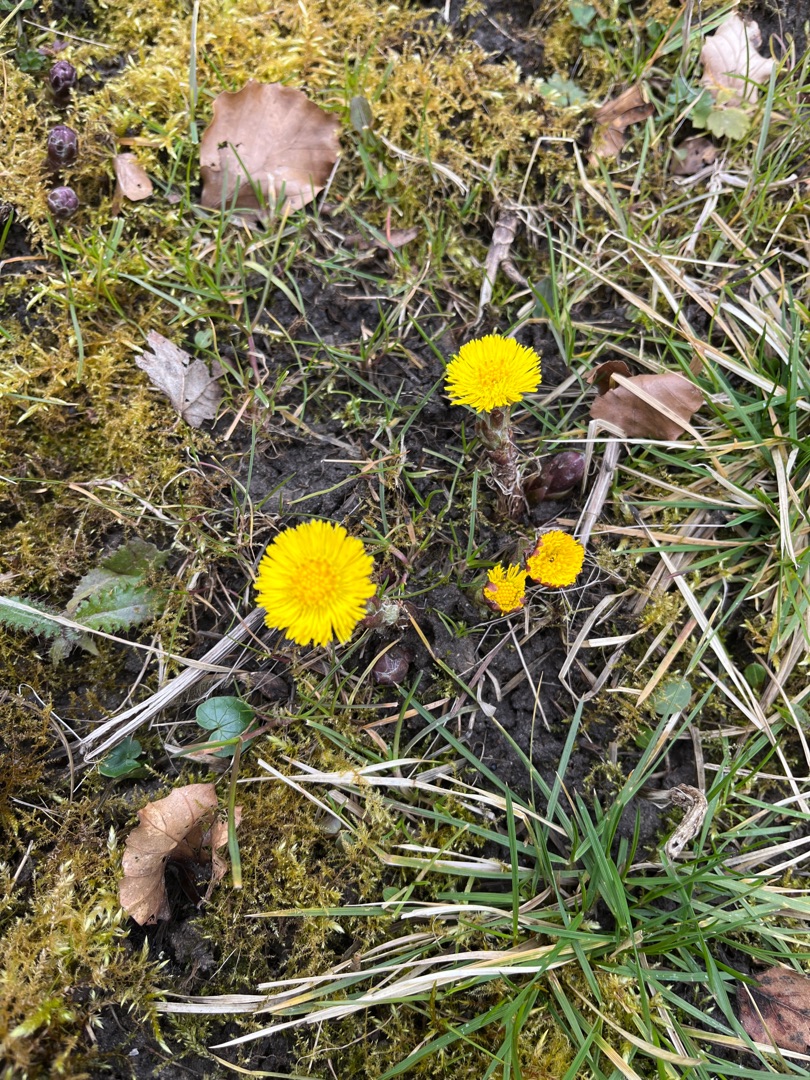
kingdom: Plantae
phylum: Tracheophyta
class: Magnoliopsida
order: Asterales
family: Asteraceae
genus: Tussilago
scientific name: Tussilago farfara
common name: Følfod
